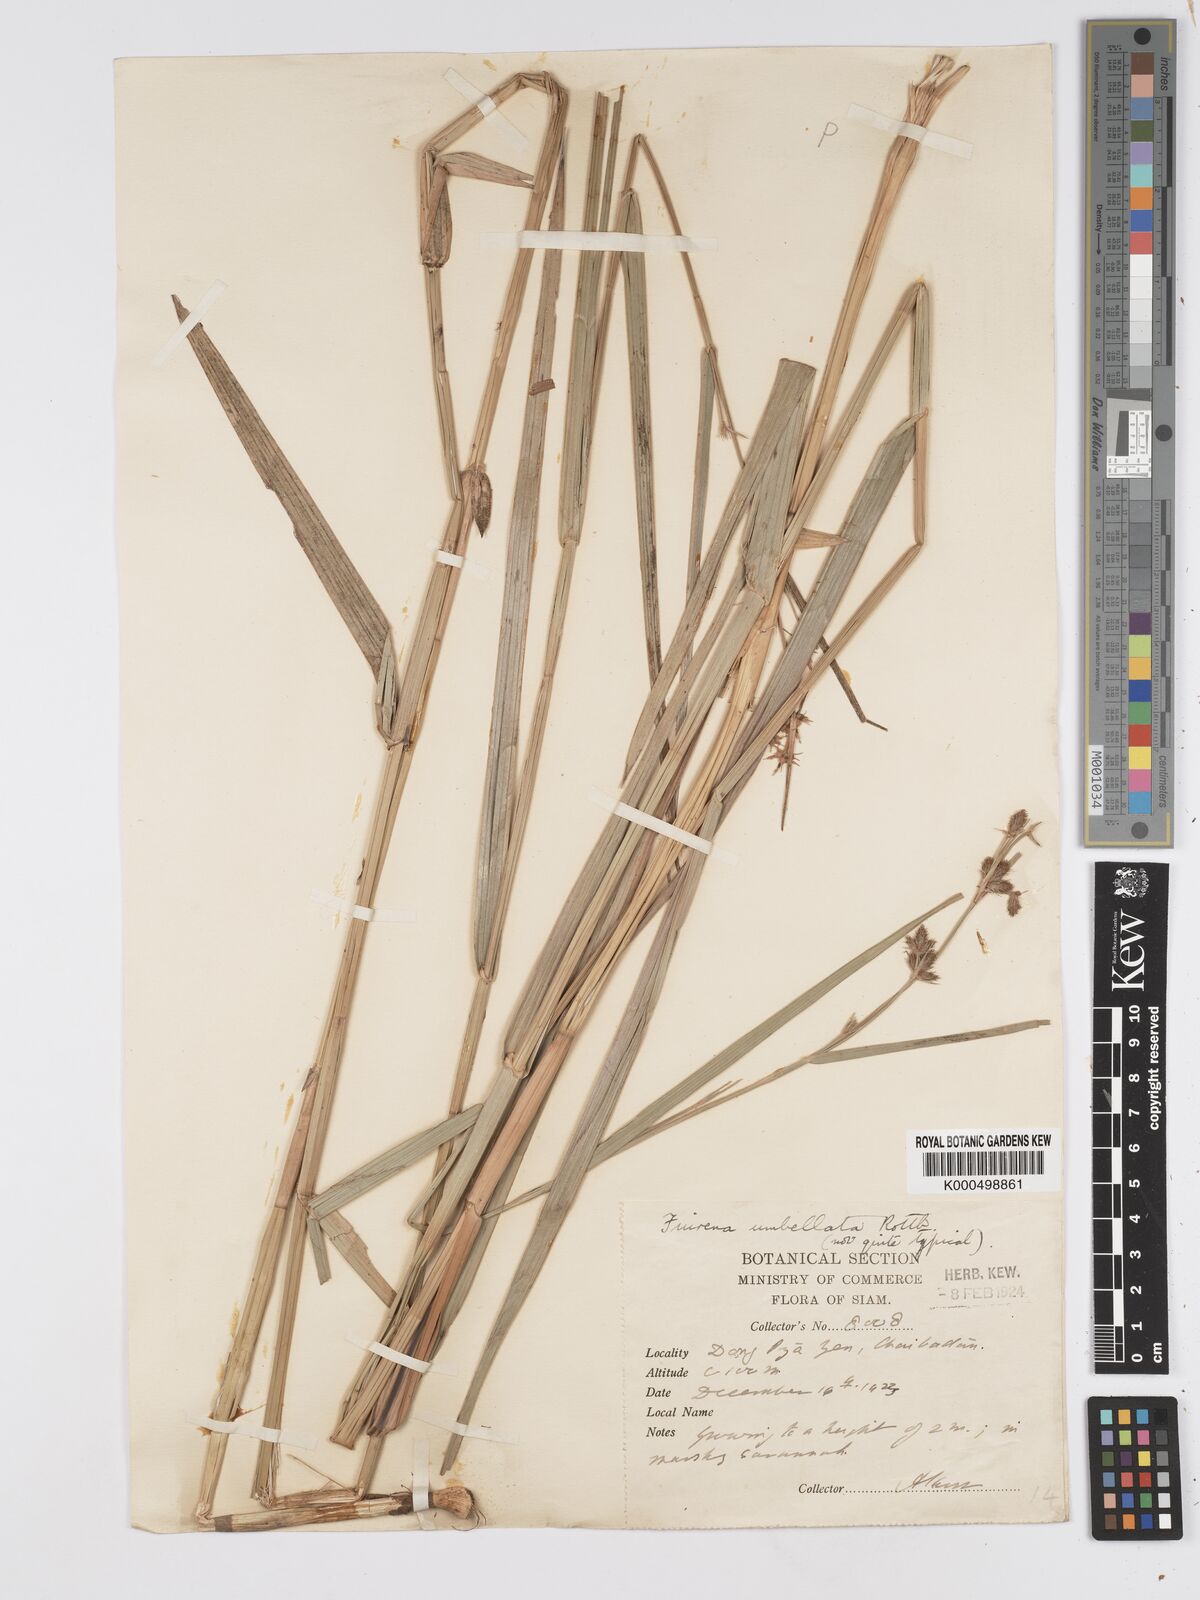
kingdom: Plantae
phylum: Tracheophyta
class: Liliopsida
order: Poales
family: Cyperaceae
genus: Fuirena
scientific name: Fuirena umbellata
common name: Yefen
